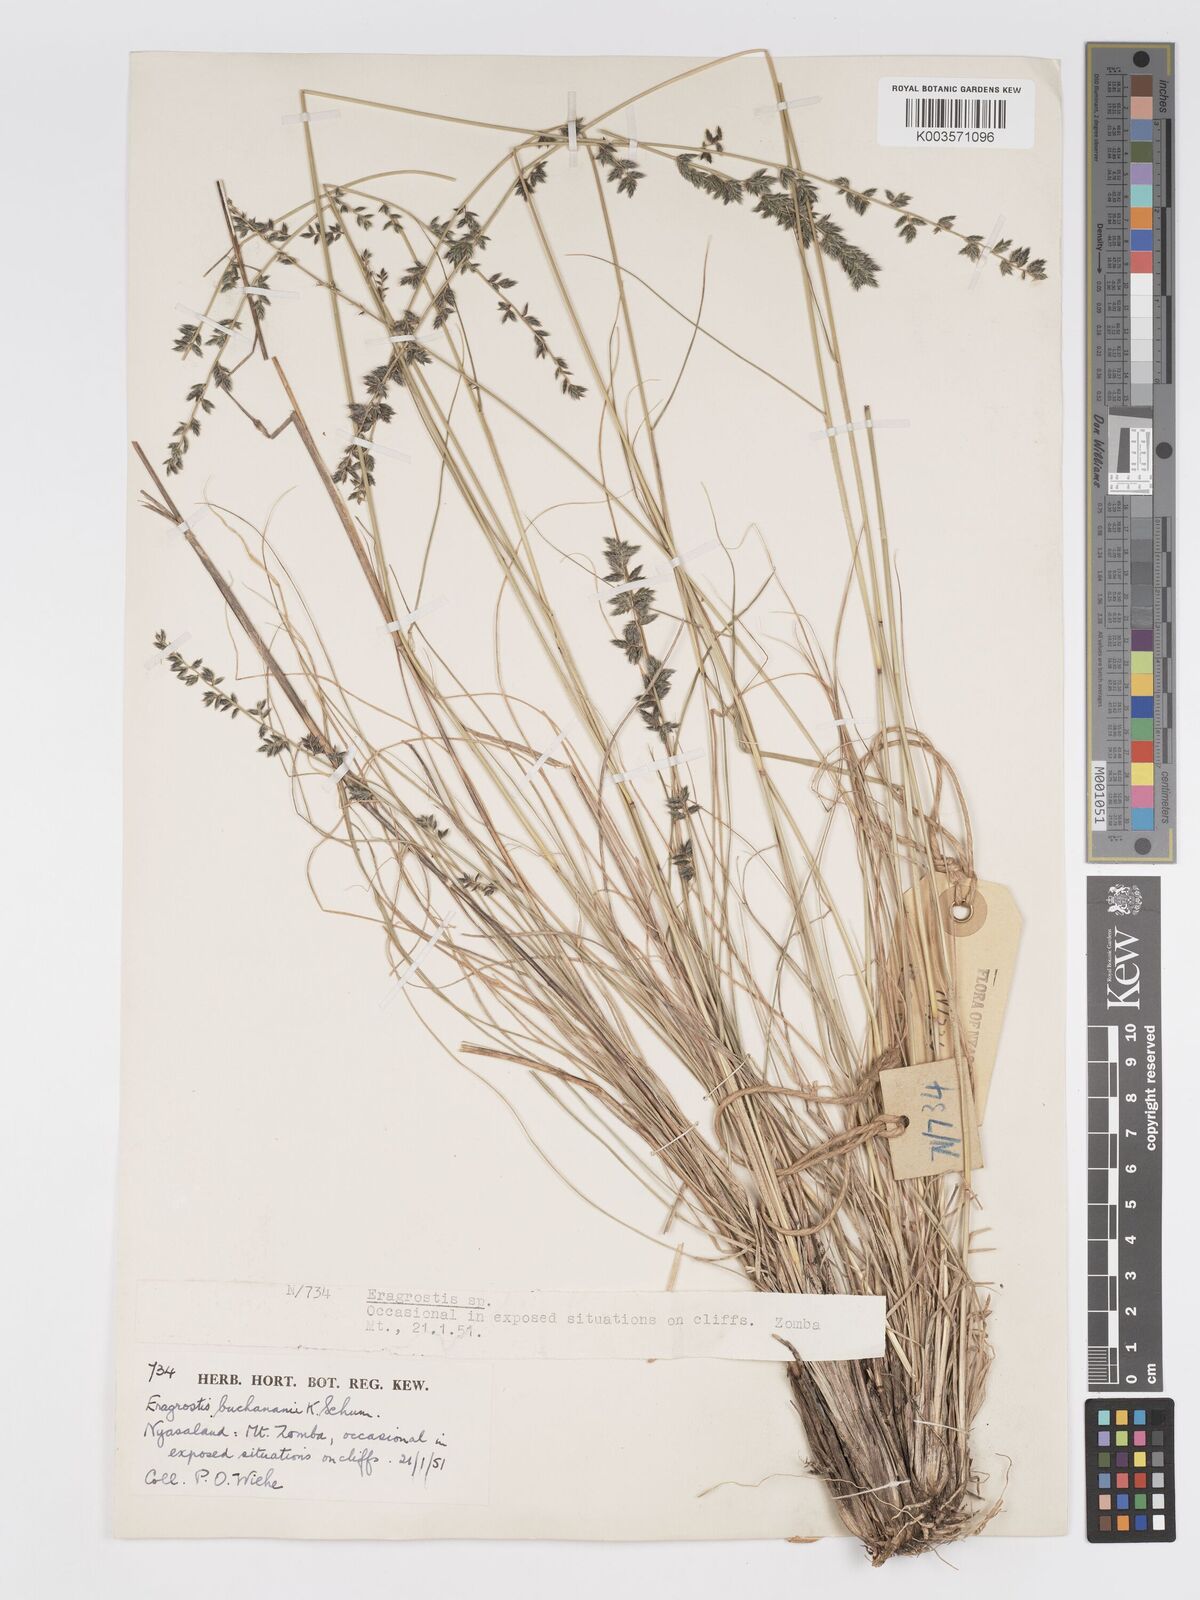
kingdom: Plantae
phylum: Tracheophyta
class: Liliopsida
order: Poales
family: Poaceae
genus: Eragrostis
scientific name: Eragrostis nindensis
